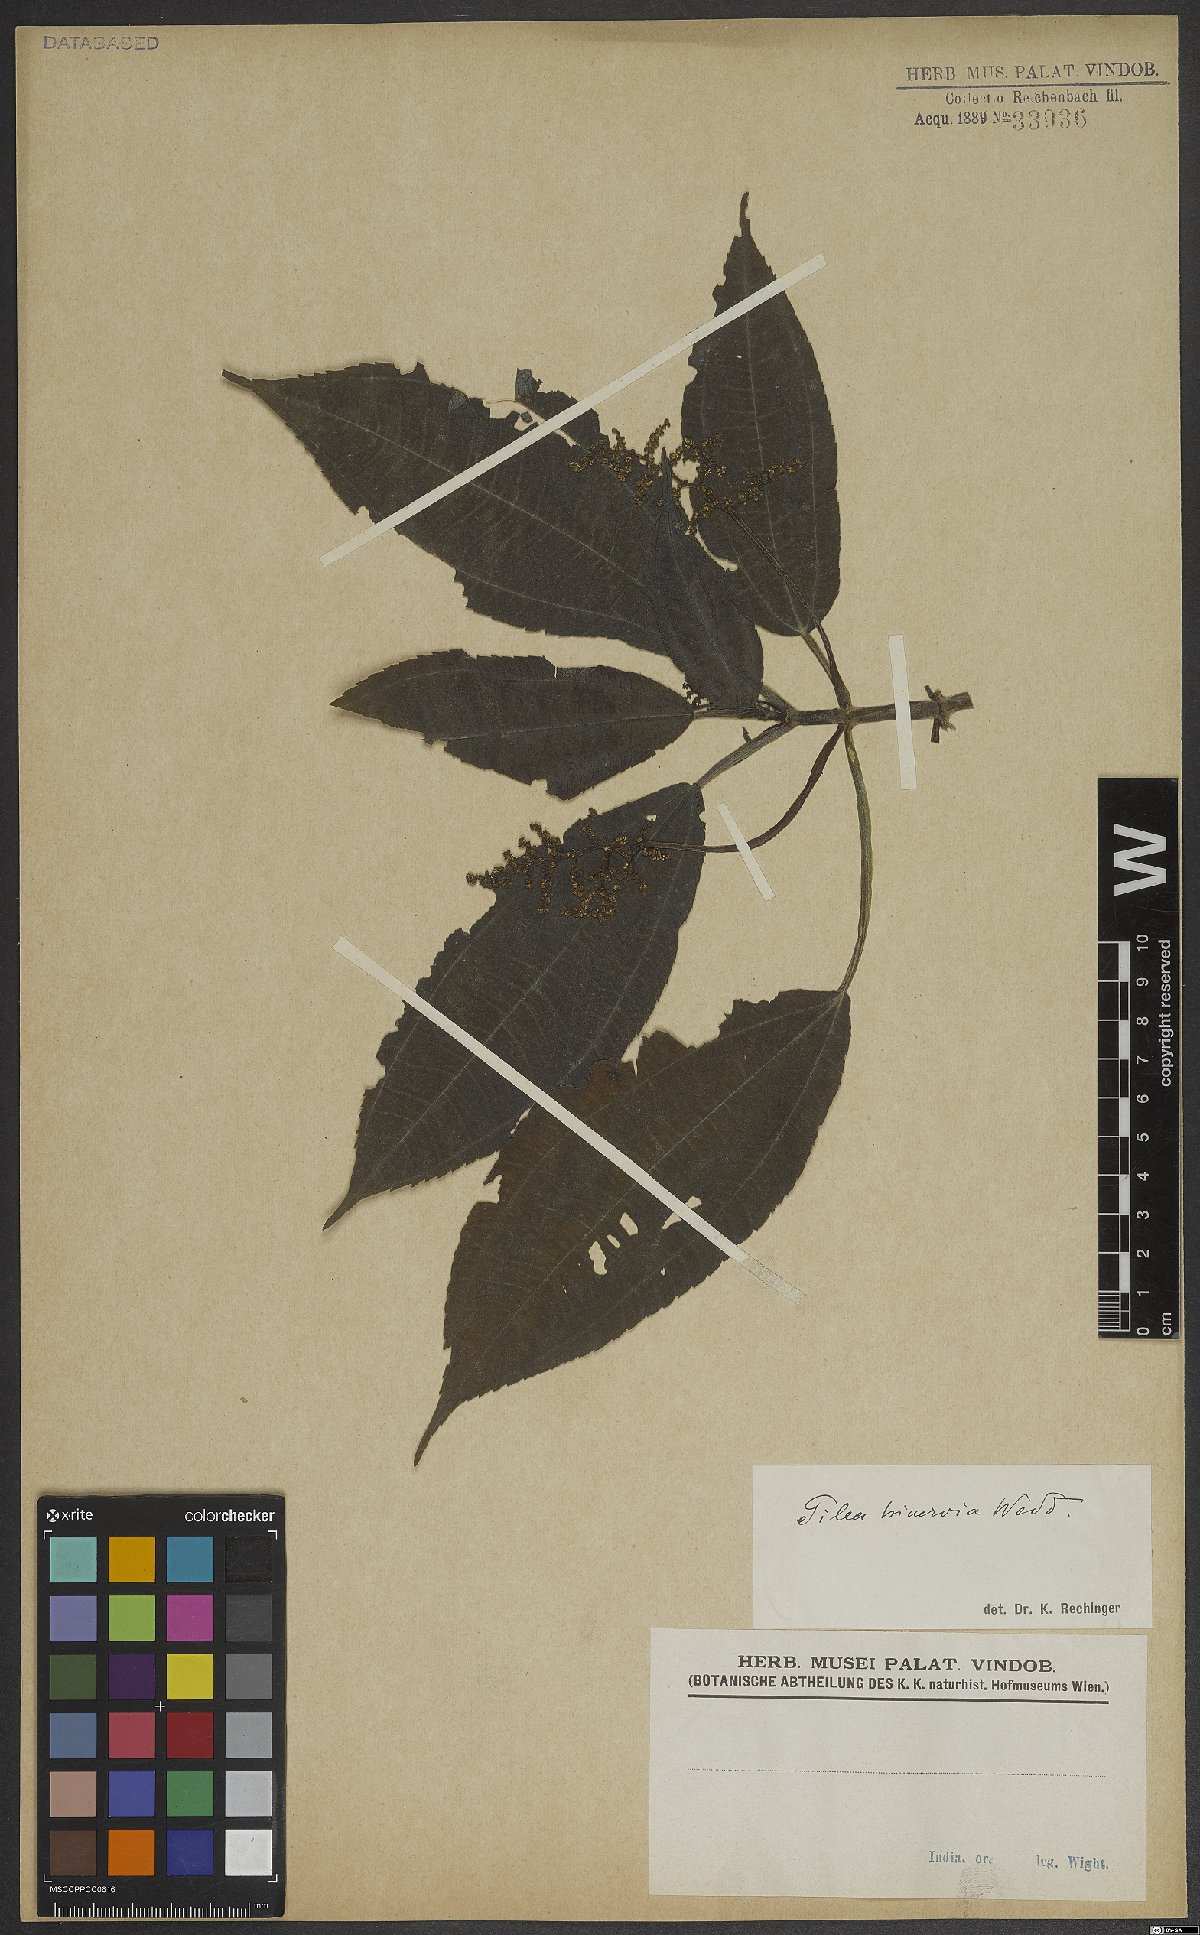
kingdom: Plantae
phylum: Tracheophyta
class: Magnoliopsida
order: Rosales
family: Urticaceae
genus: Pilea
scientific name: Pilea melastomoides
